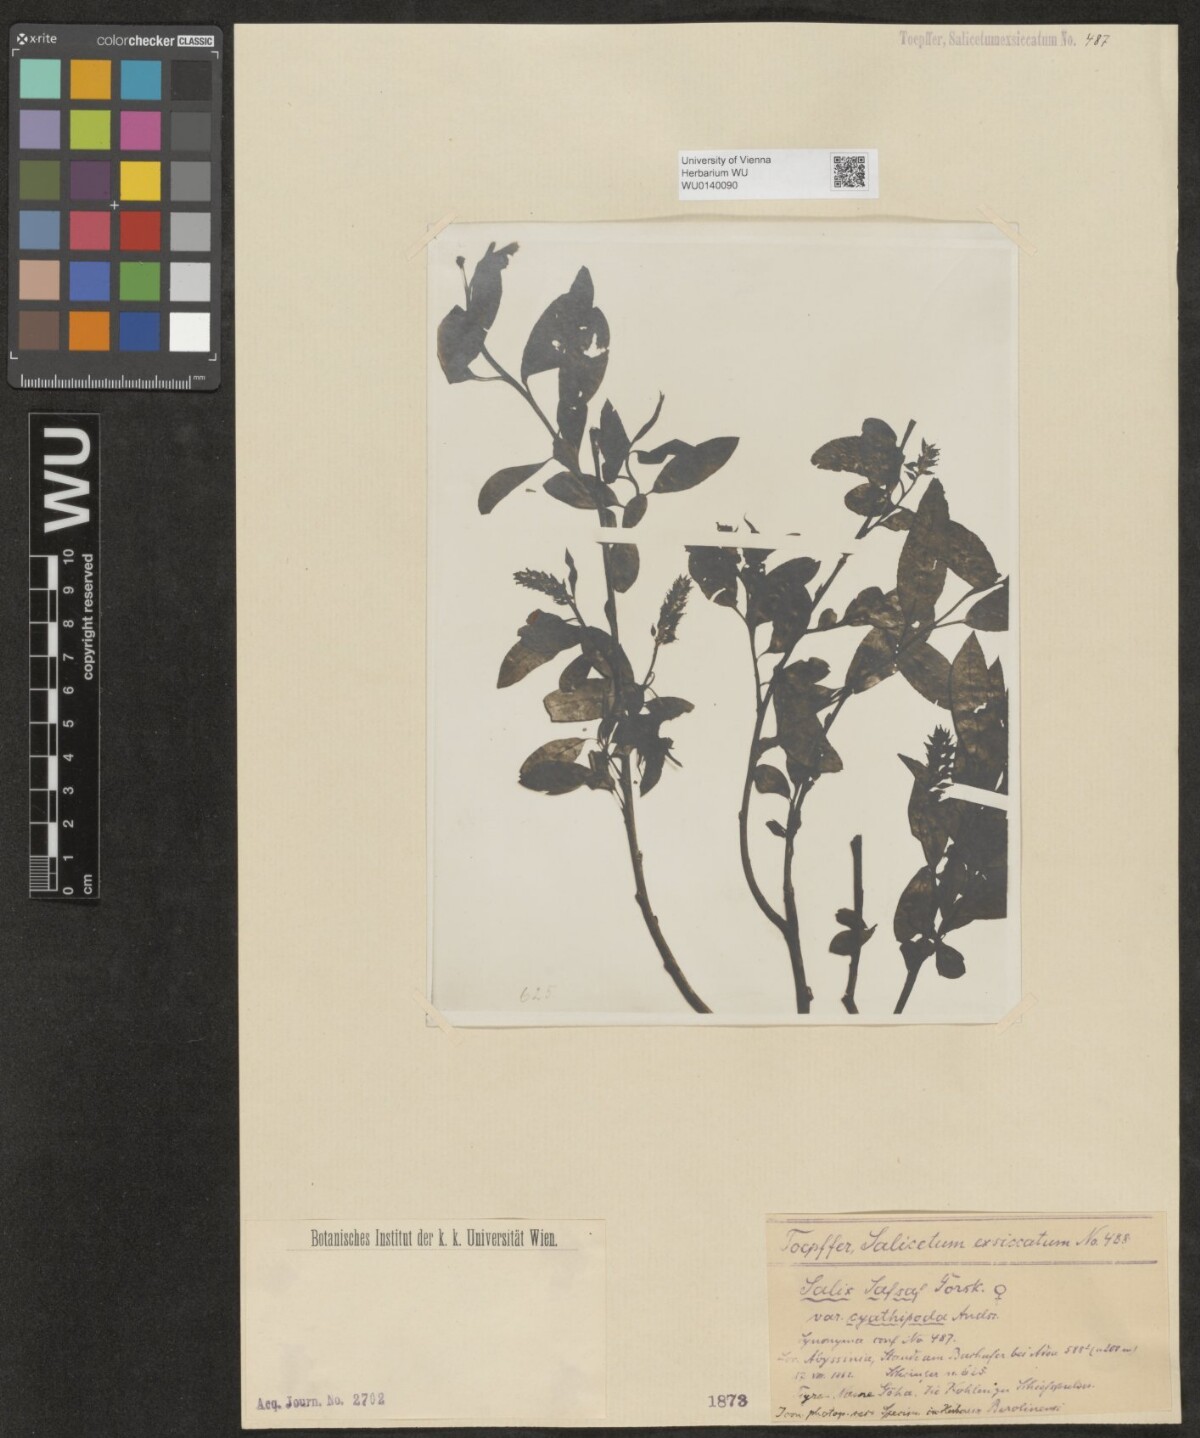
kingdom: Plantae
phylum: Tracheophyta
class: Magnoliopsida
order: Malpighiales
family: Salicaceae
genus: Salix
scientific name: Salix mucronata
